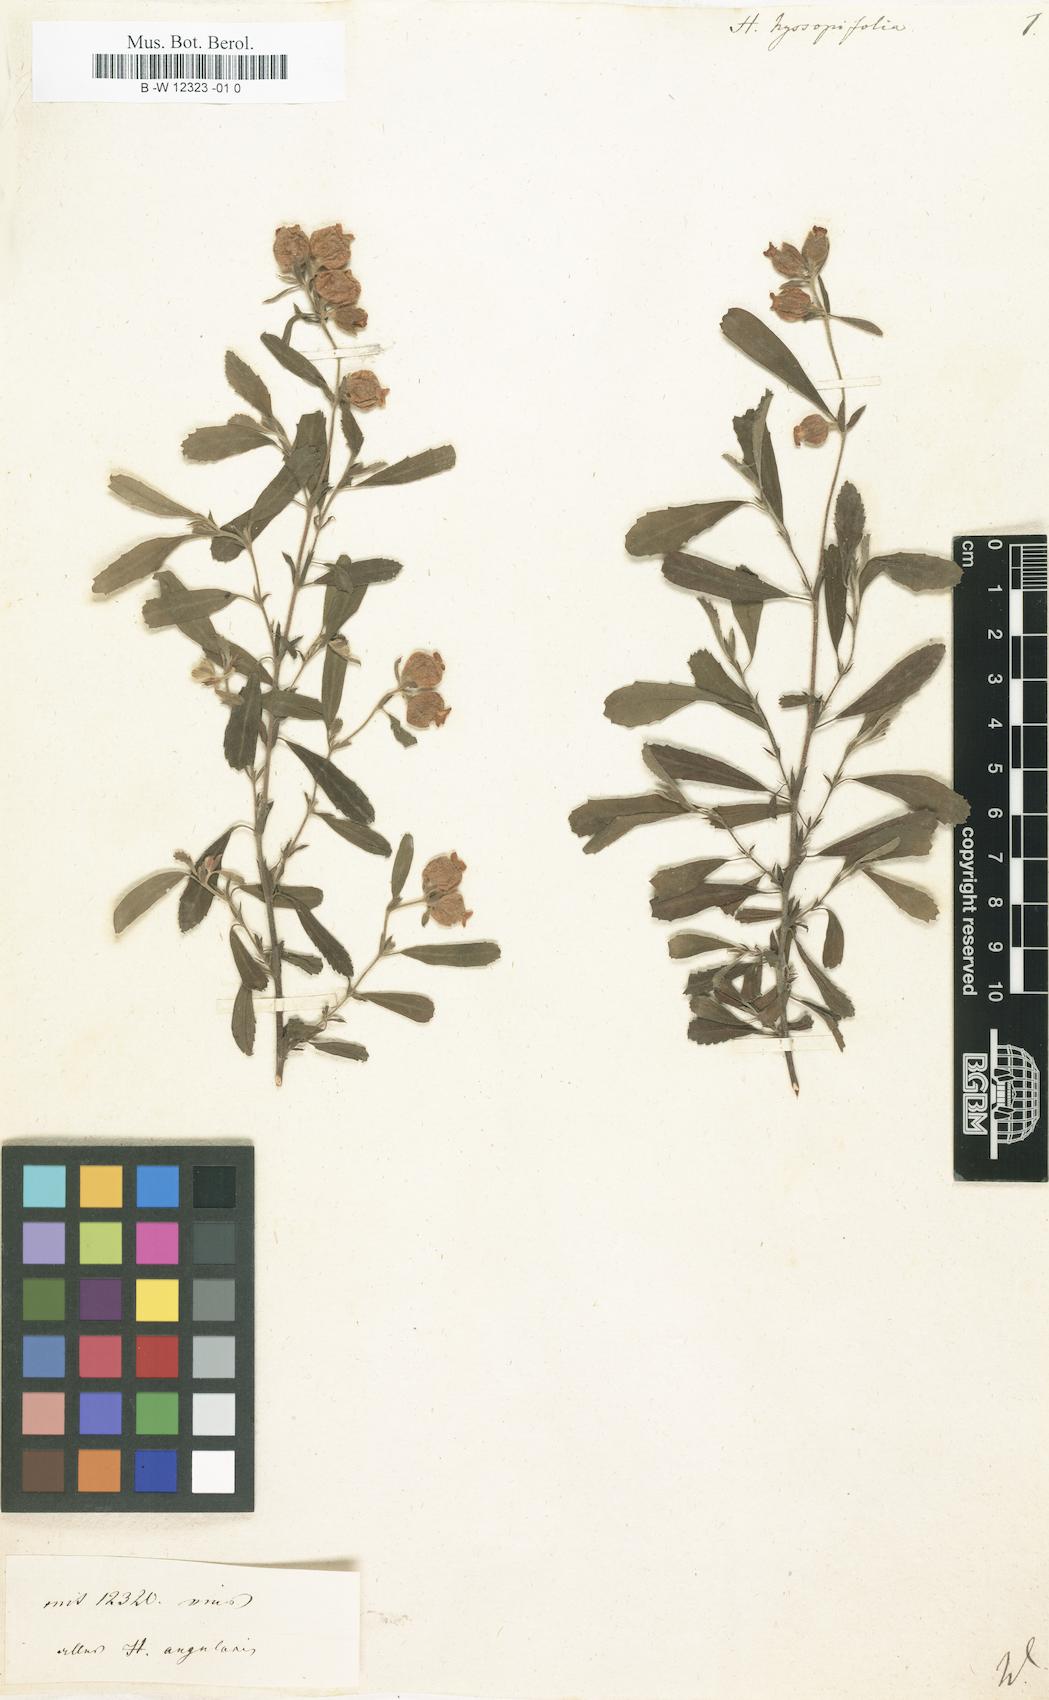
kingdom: Plantae
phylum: Tracheophyta
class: Magnoliopsida
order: Malvales
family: Malvaceae
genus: Hermannia
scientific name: Hermannia hyssopifolia
